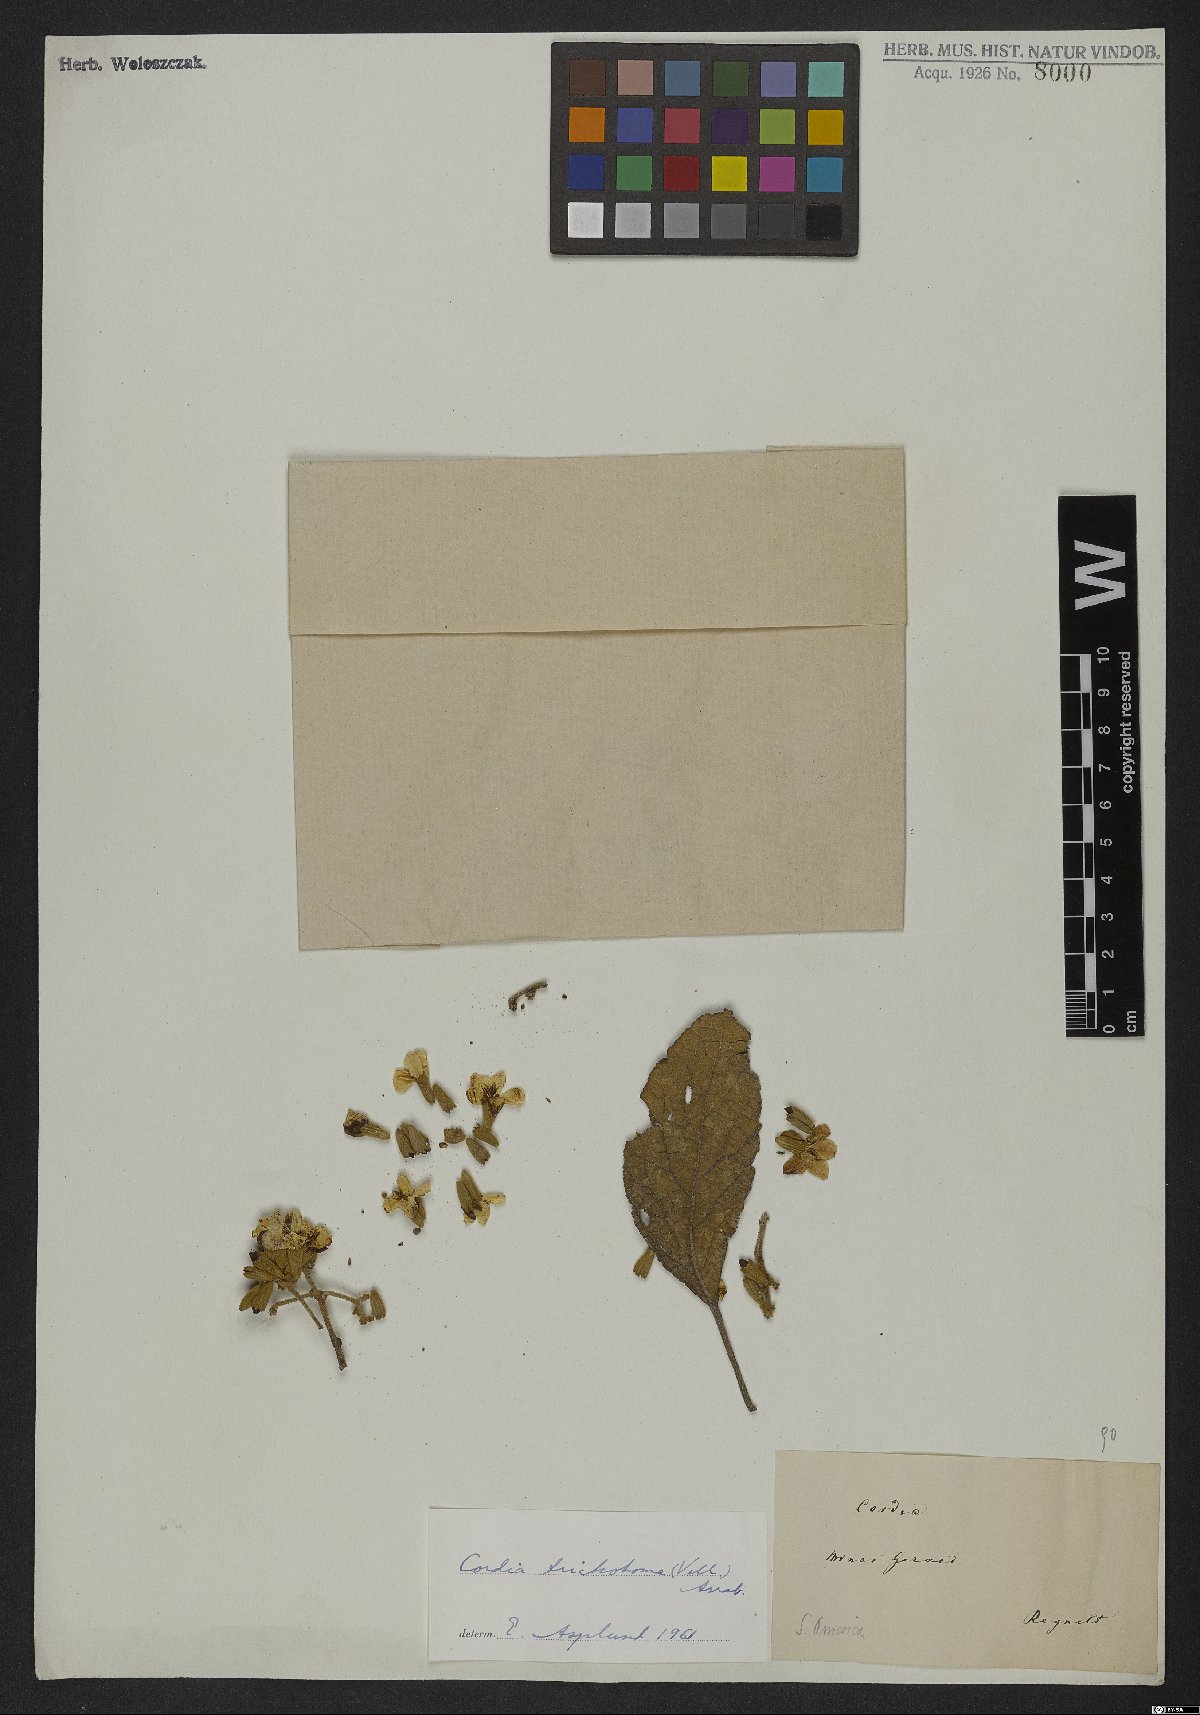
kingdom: Plantae
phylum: Tracheophyta
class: Magnoliopsida
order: Boraginales
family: Cordiaceae
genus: Cordia
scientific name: Cordia trichotoma
